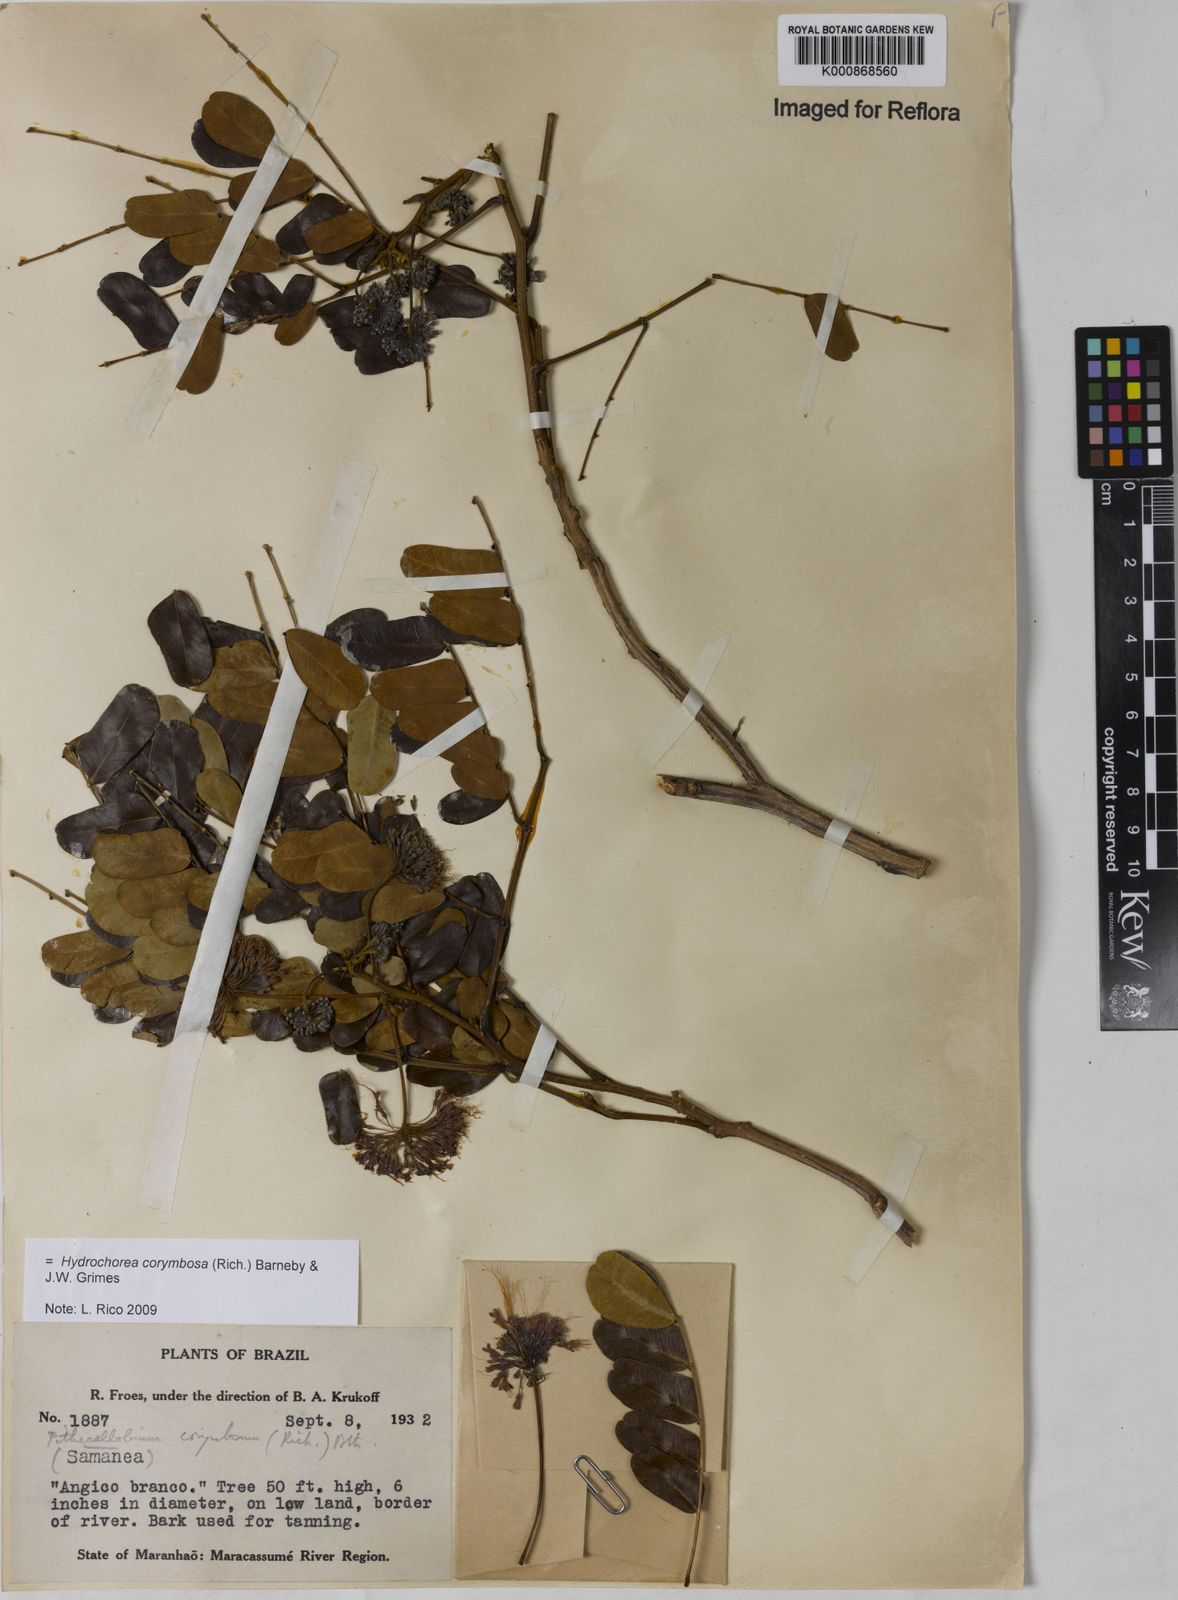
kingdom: Plantae
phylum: Tracheophyta
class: Magnoliopsida
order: Fabales
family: Fabaceae
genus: Hydrochorea
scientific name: Hydrochorea corymbosa
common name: Swamp manariballi
